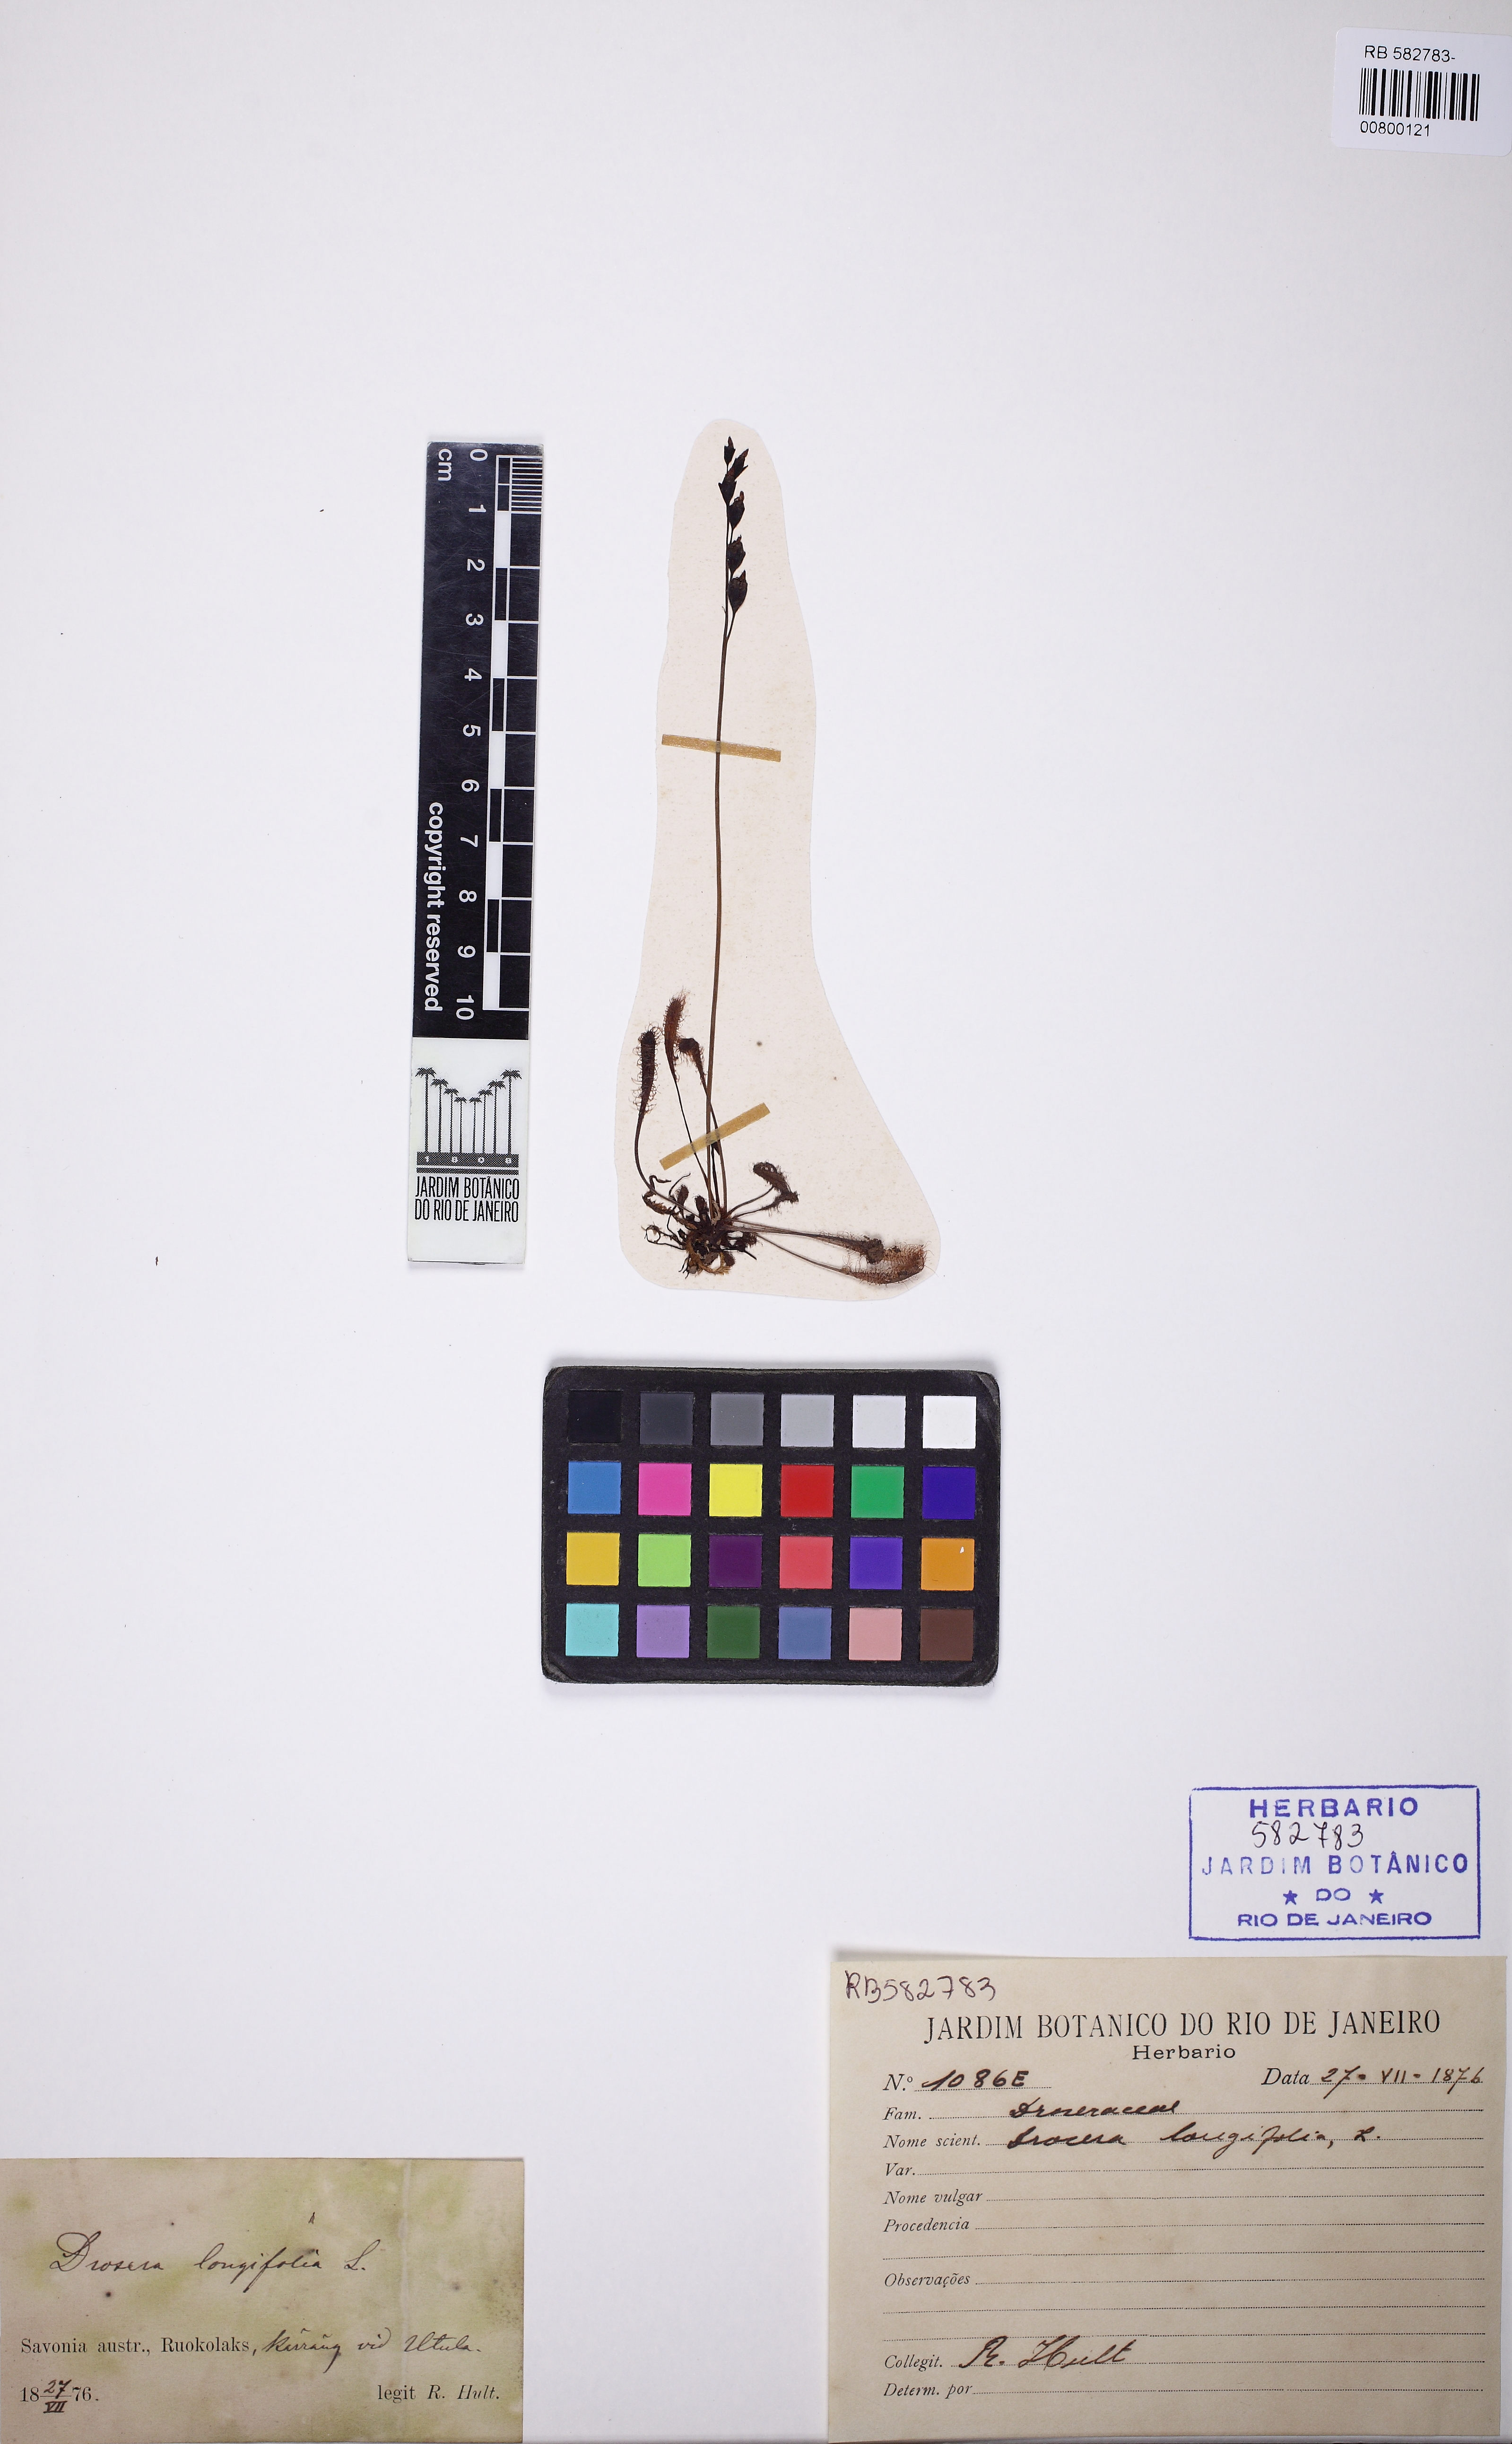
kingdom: Plantae
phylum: Tracheophyta
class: Magnoliopsida
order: Caryophyllales
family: Droseraceae
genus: Drosera
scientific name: Drosera anglica
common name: Great sundew
